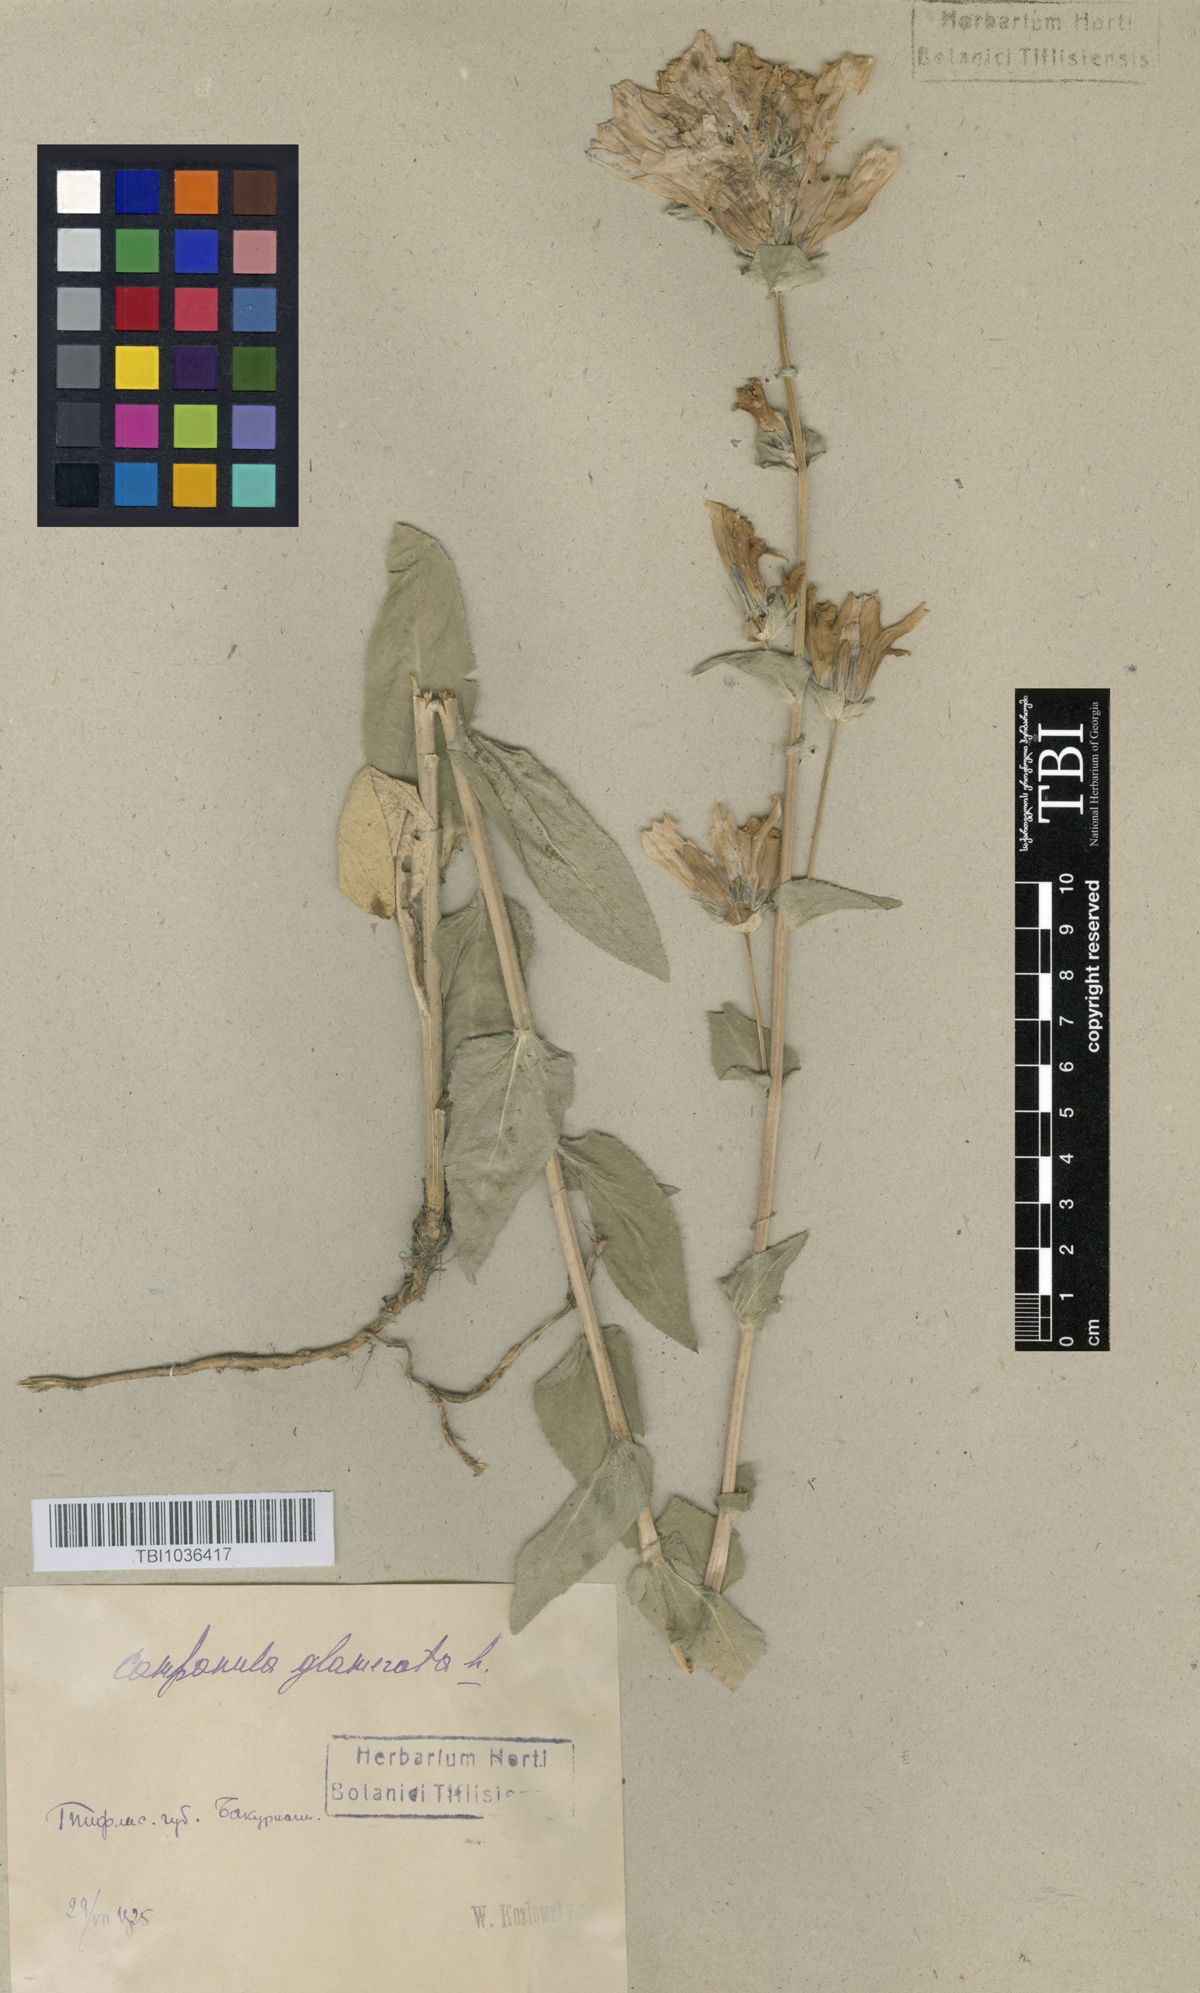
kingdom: Plantae
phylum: Tracheophyta
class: Magnoliopsida
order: Asterales
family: Campanulaceae
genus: Campanula
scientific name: Campanula glomerata
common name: Clustered bellflower
